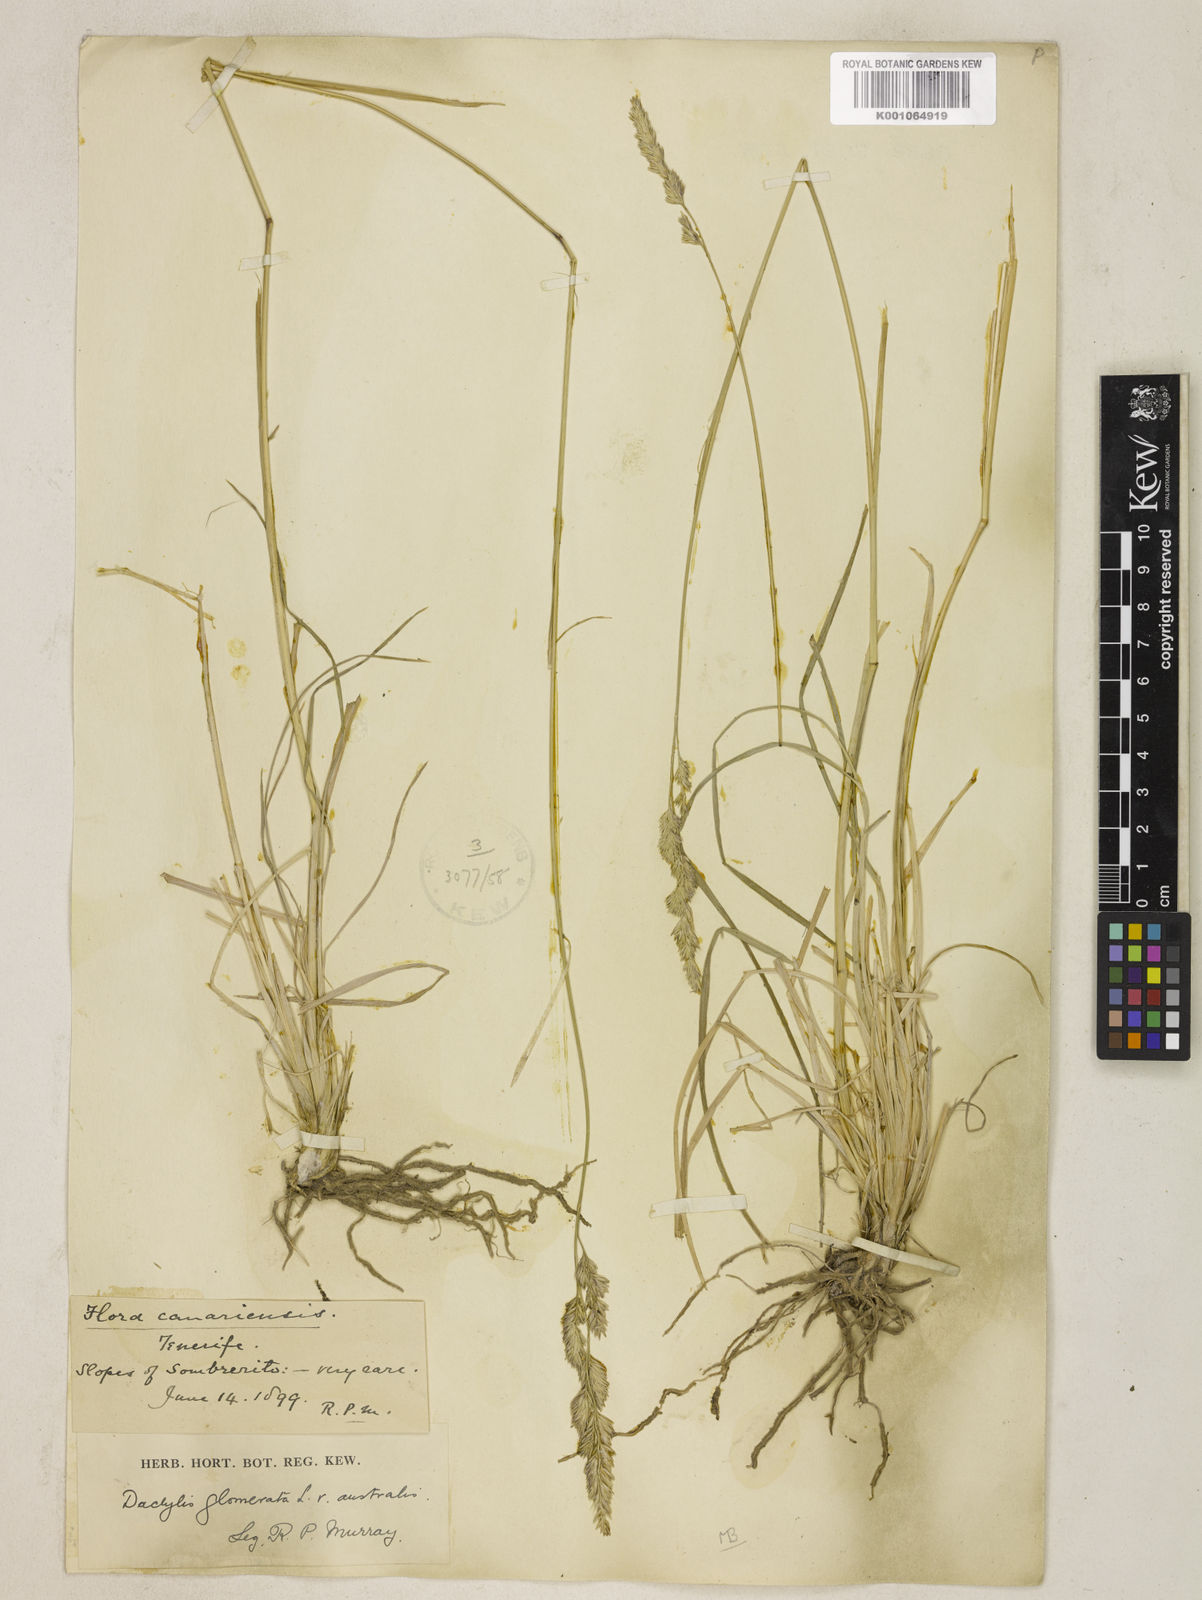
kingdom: Plantae
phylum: Tracheophyta
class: Liliopsida
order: Poales
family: Poaceae
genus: Dactylis
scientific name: Dactylis glomerata
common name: Orchardgrass
